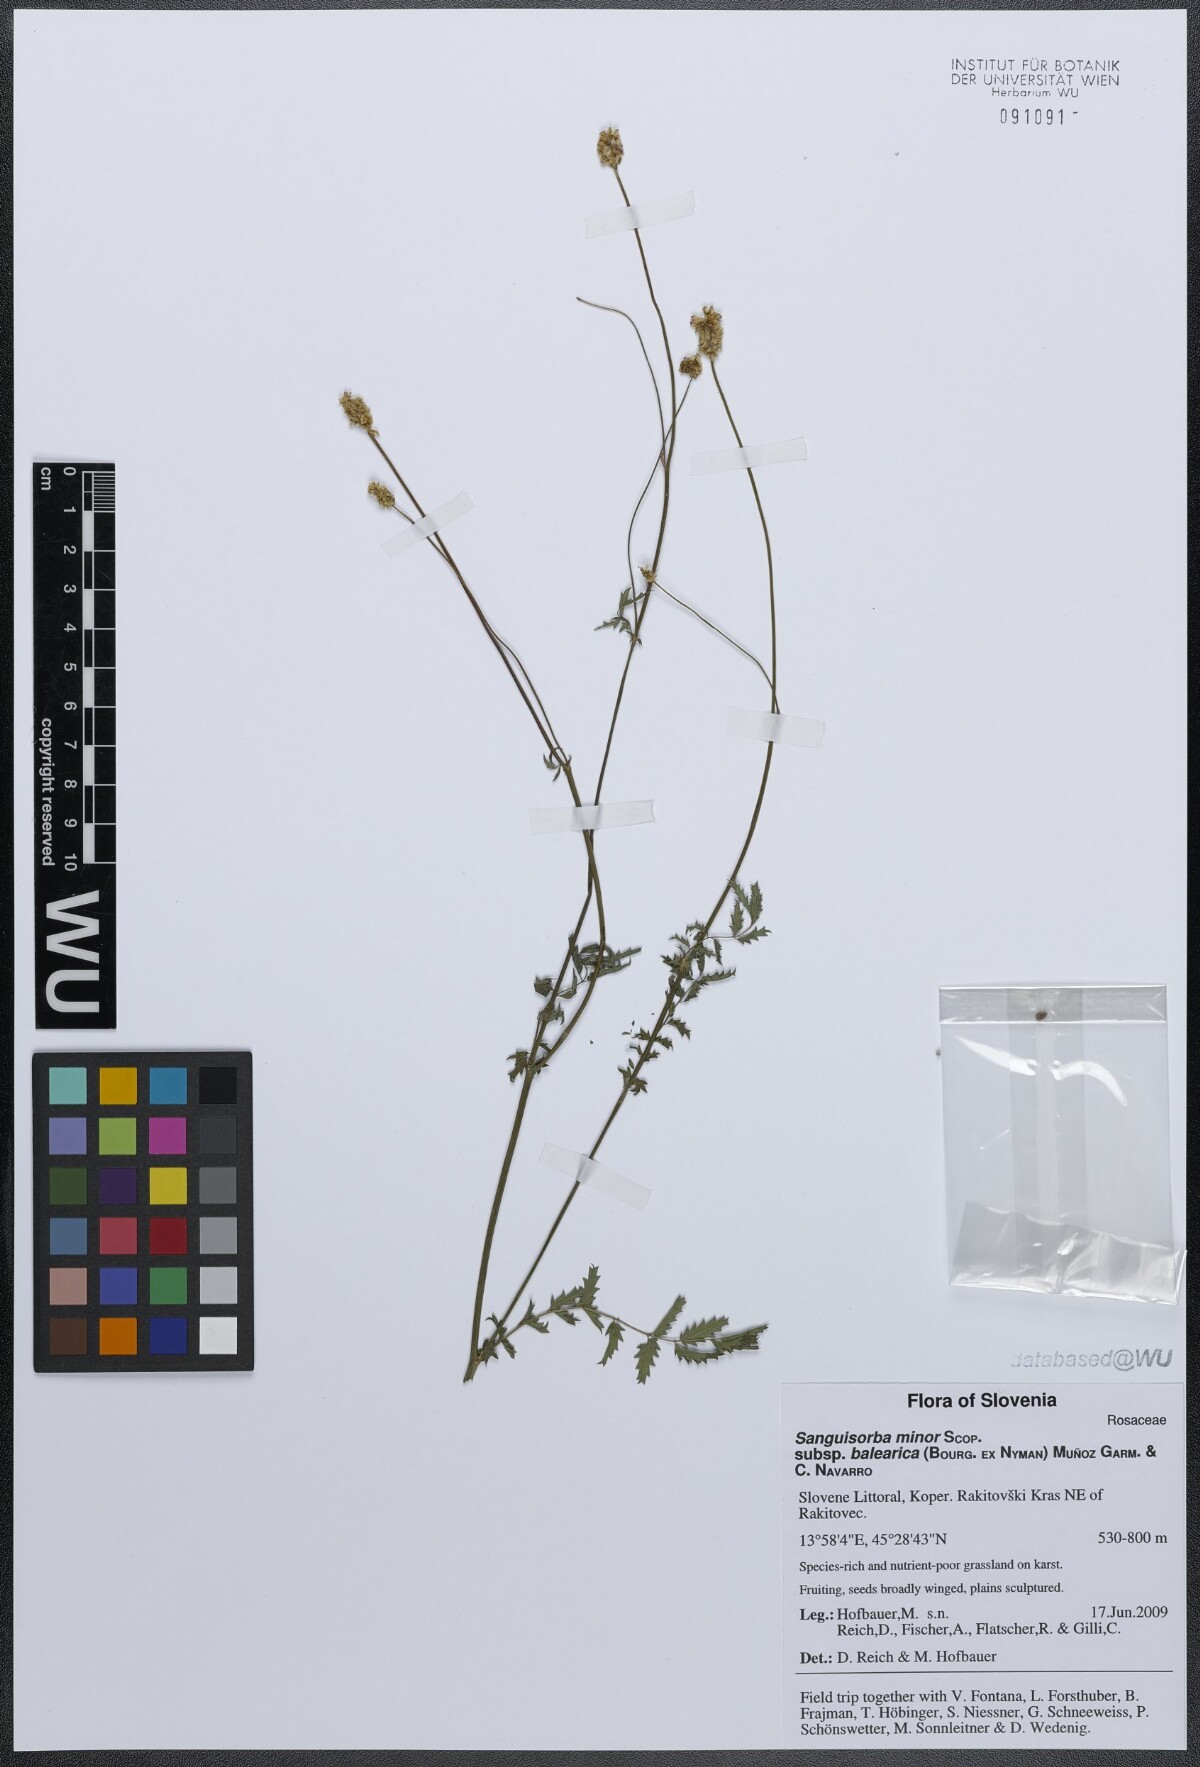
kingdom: Plantae
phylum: Tracheophyta
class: Magnoliopsida
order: Rosales
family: Rosaceae
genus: Poterium
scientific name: Poterium sanguisorba
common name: Salad burnet
